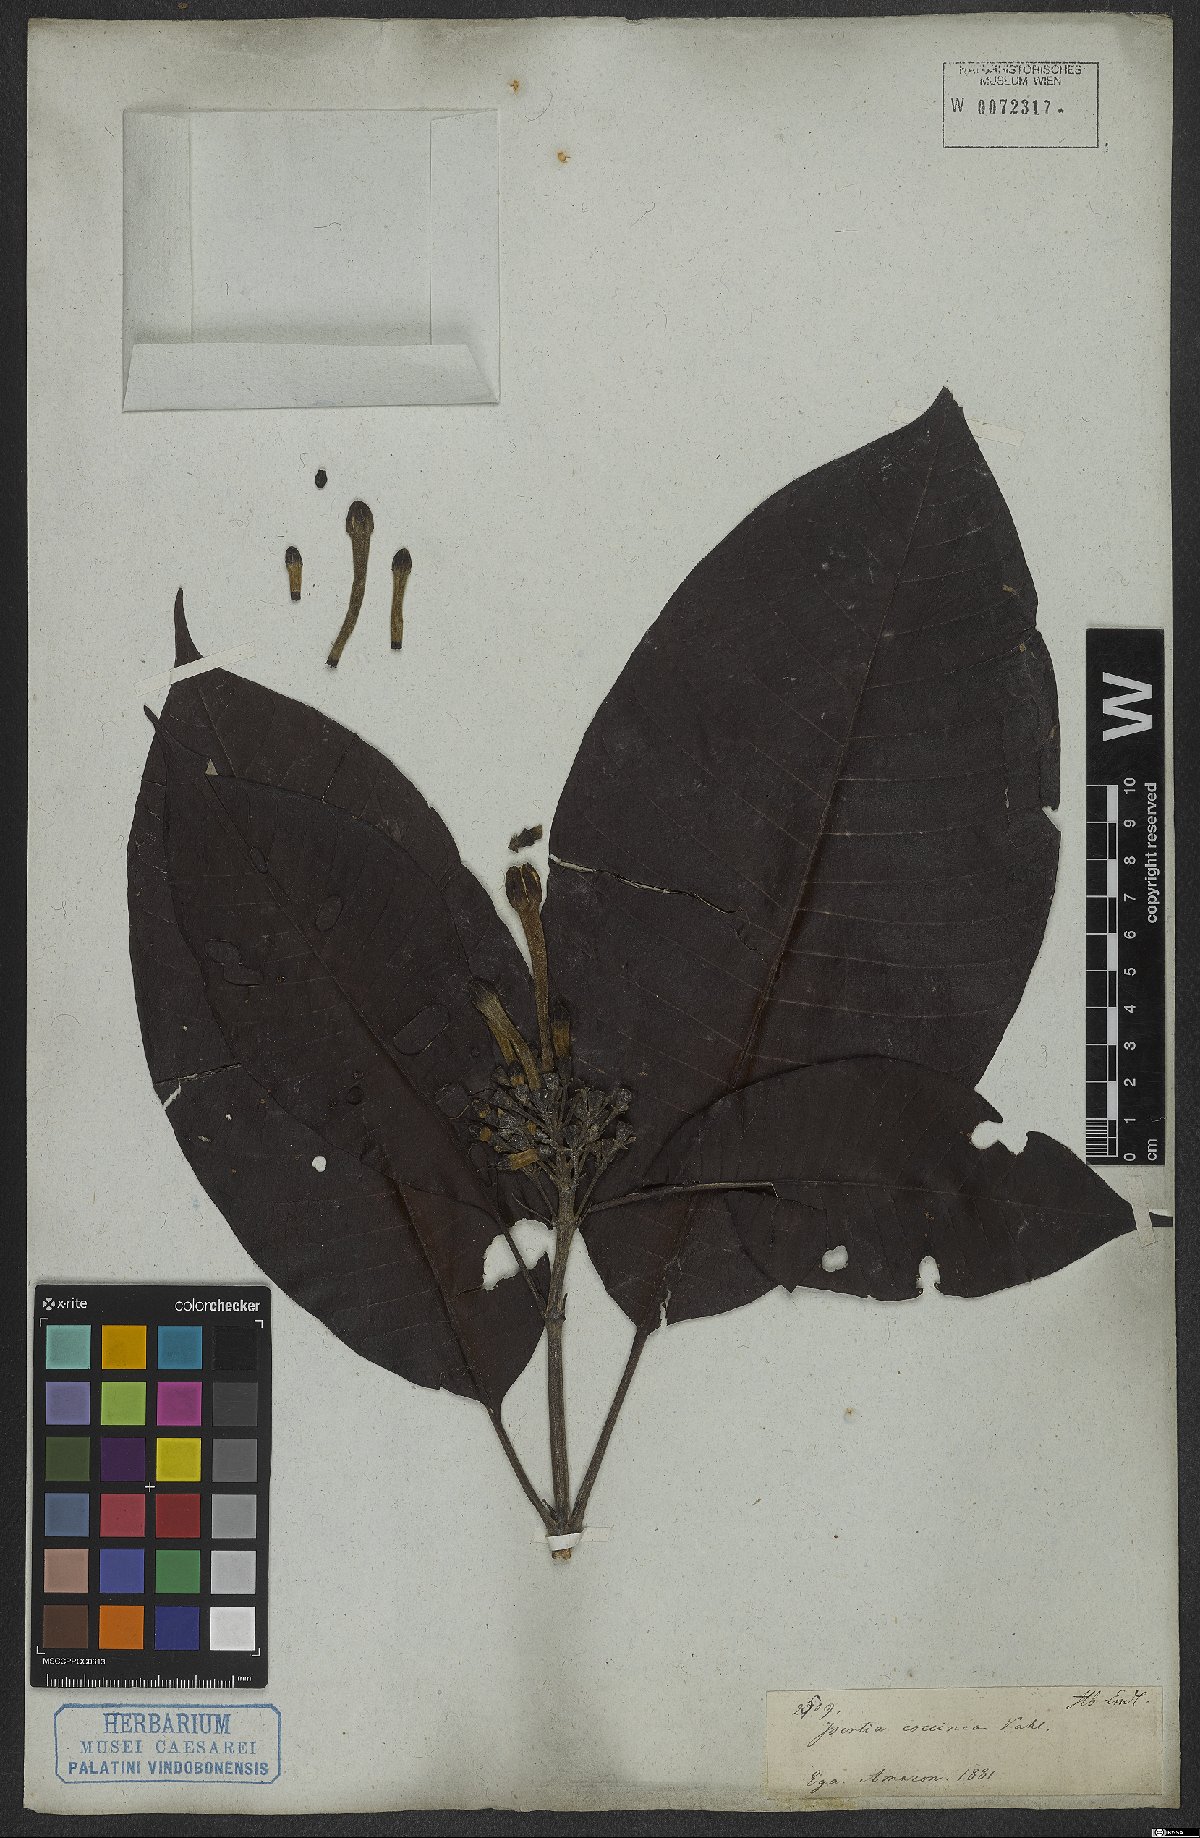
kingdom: Plantae
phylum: Tracheophyta
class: Magnoliopsida
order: Gentianales
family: Rubiaceae
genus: Isertia
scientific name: Isertia coccinea
